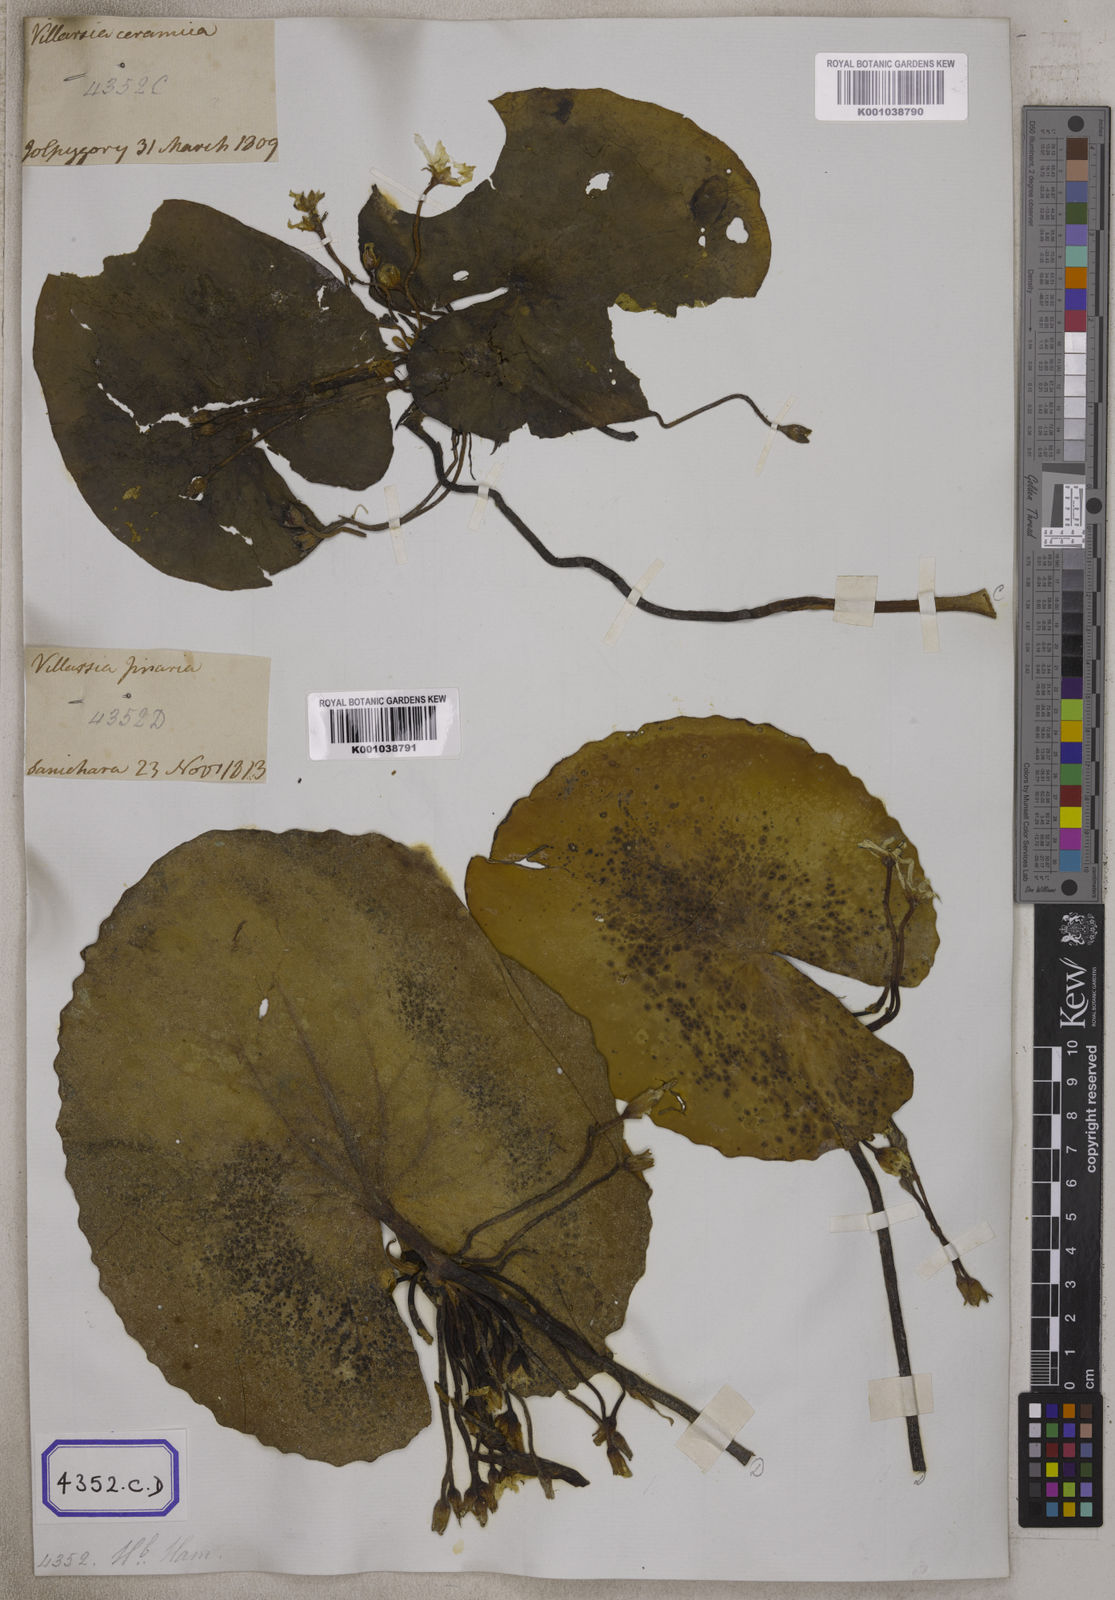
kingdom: Plantae
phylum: Tracheophyta
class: Magnoliopsida
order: Asterales
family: Menyanthaceae
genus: Villarsia
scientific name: Villarsia
